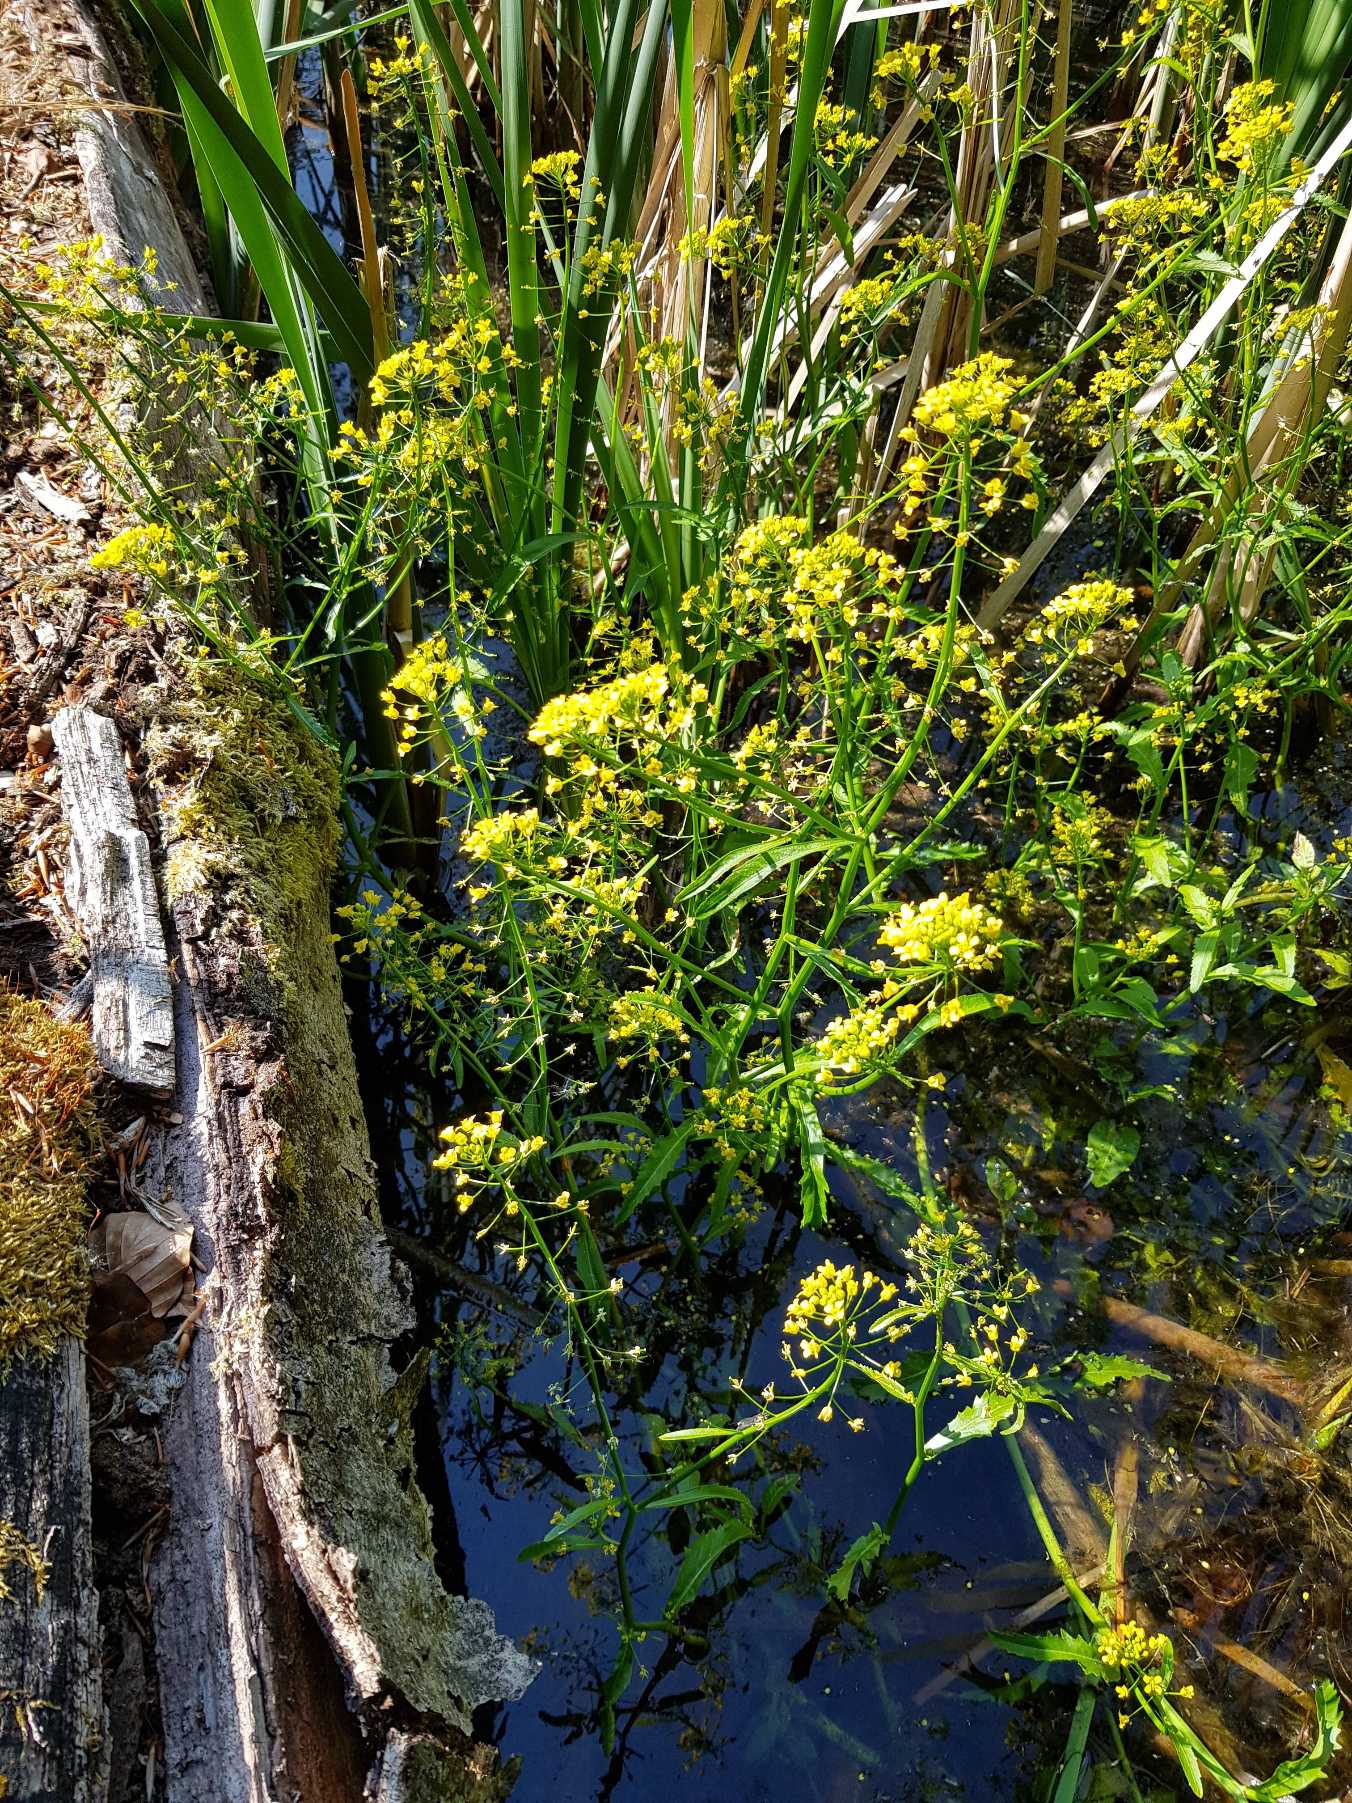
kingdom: Plantae
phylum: Tracheophyta
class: Magnoliopsida
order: Brassicales
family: Brassicaceae
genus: Rorippa
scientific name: Rorippa amphibia
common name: Vandpeberrod
